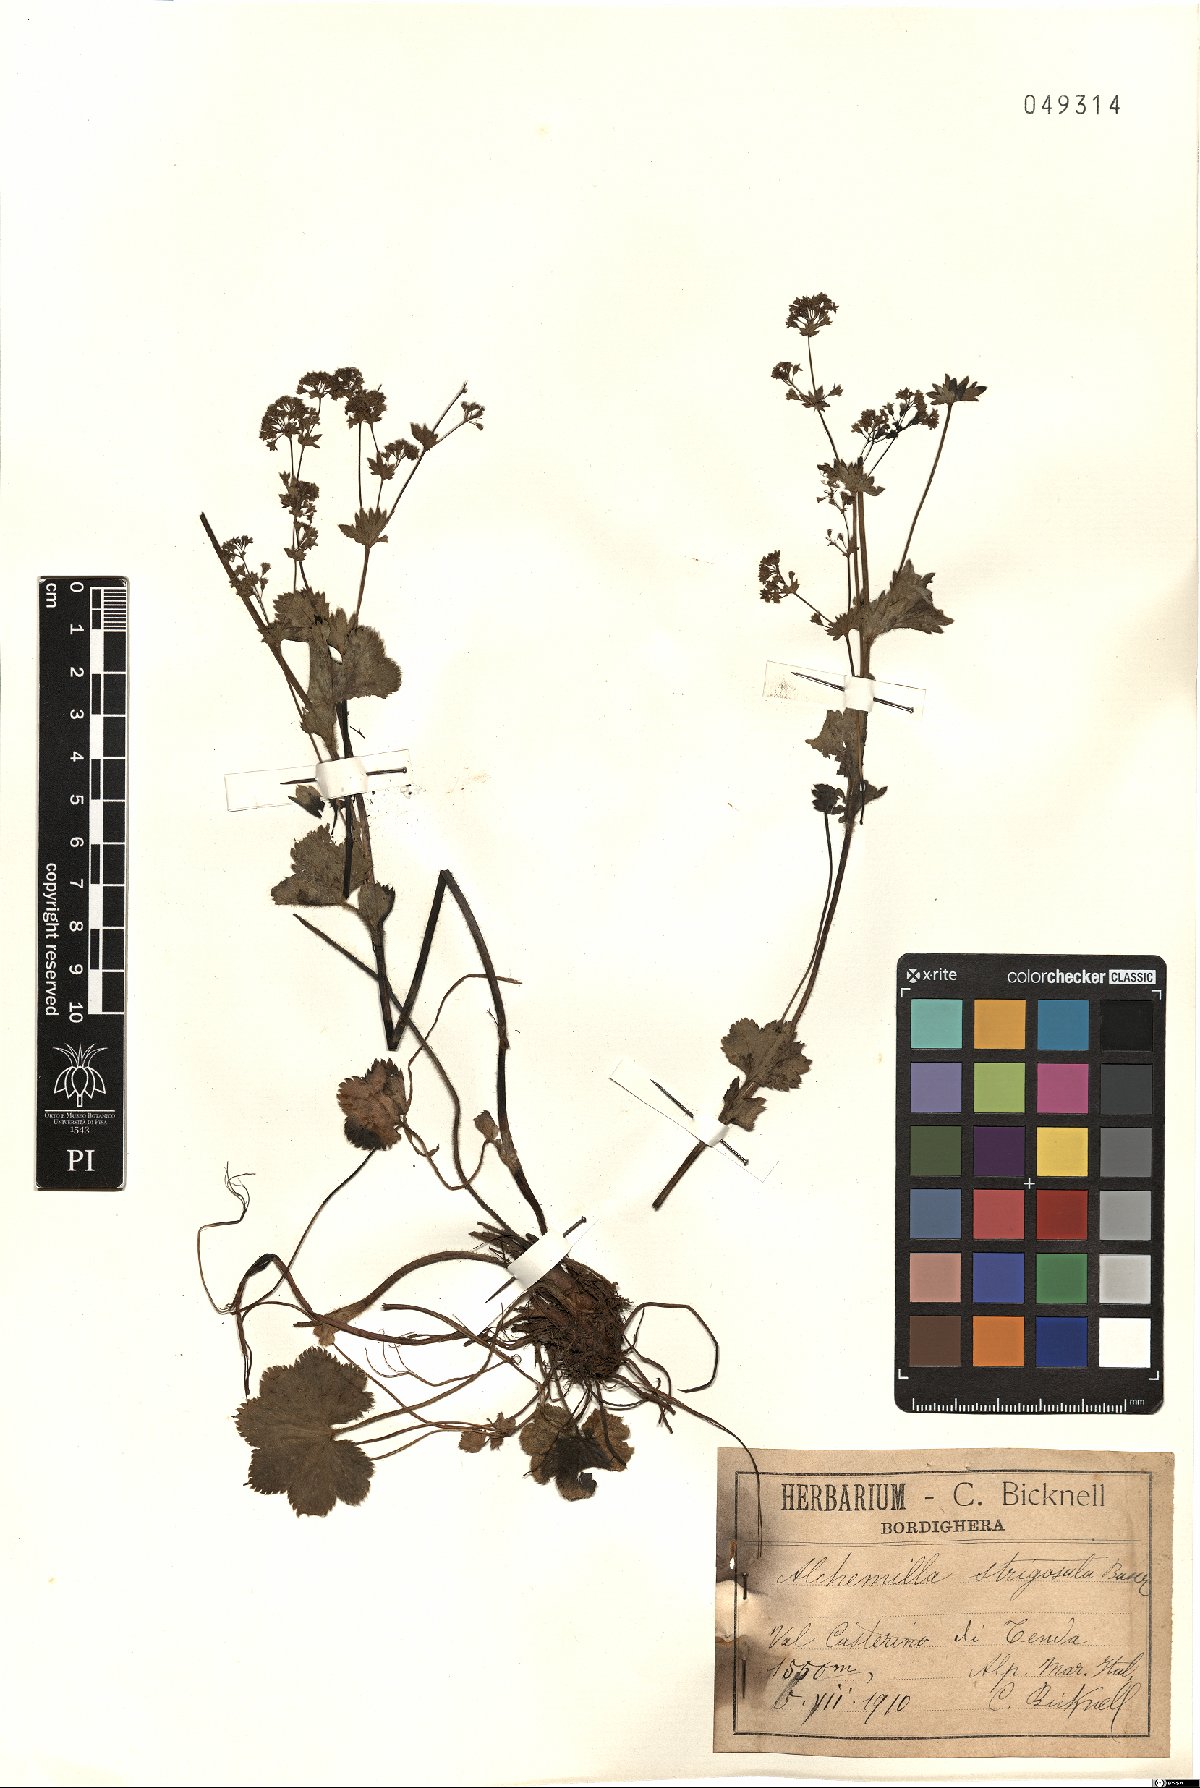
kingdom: Plantae
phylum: Tracheophyta
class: Magnoliopsida
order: Rosales
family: Rosaceae
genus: Alchemilla
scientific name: Alchemilla strigosula
